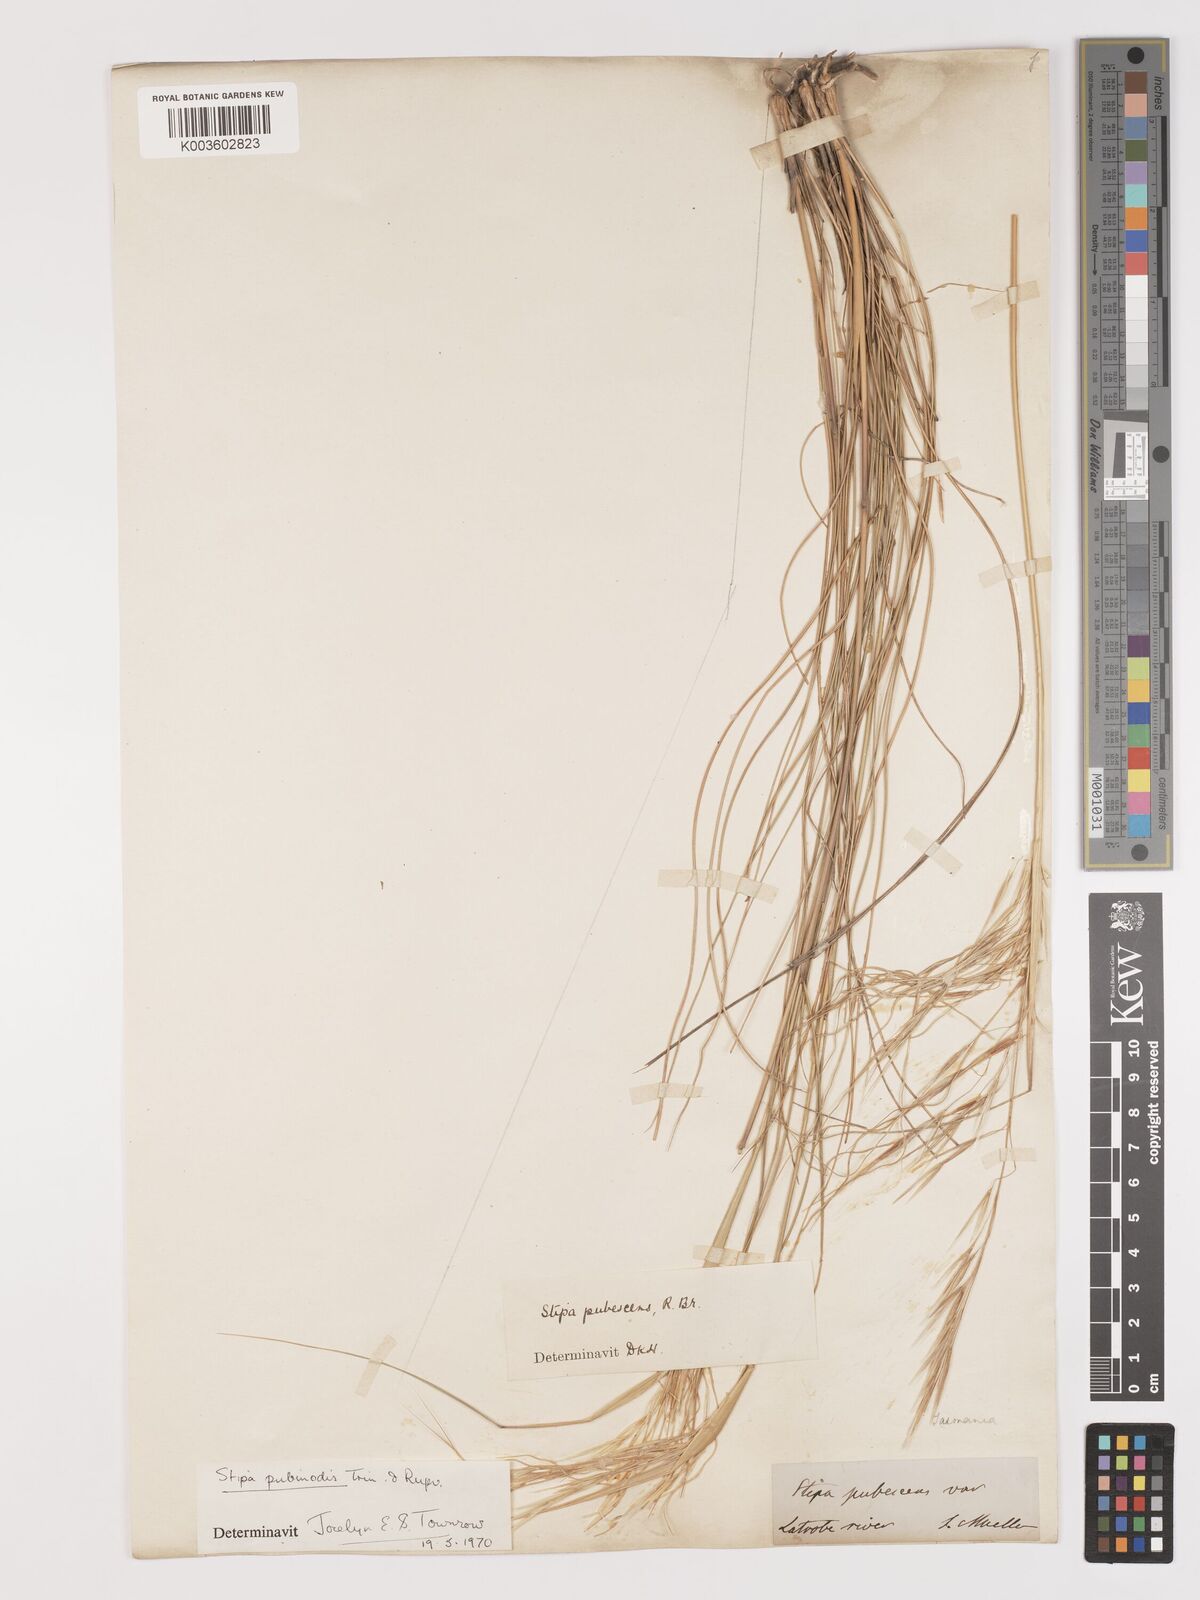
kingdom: Plantae
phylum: Tracheophyta
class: Liliopsida
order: Poales
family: Poaceae
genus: Austrostipa
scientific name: Austrostipa pubinodis
